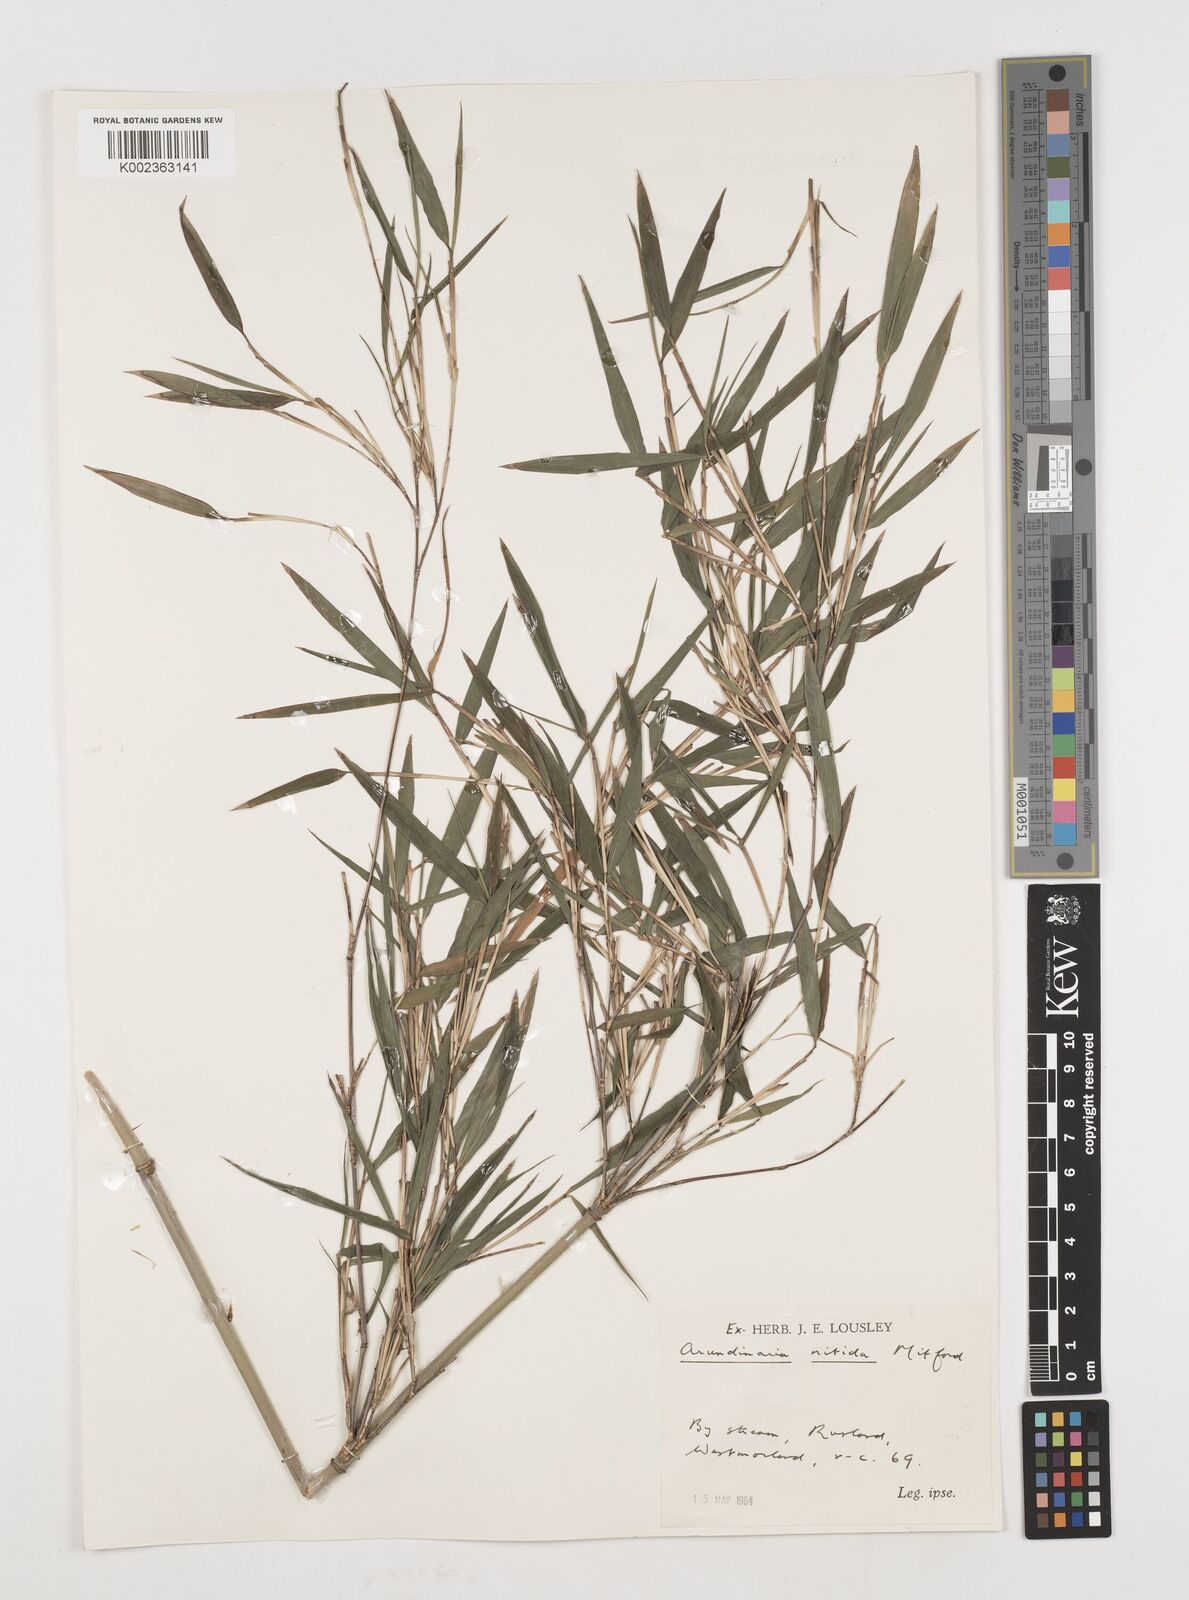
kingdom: Plantae
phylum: Tracheophyta
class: Liliopsida
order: Poales
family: Poaceae
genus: Fargesia
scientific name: Fargesia nitida ex
